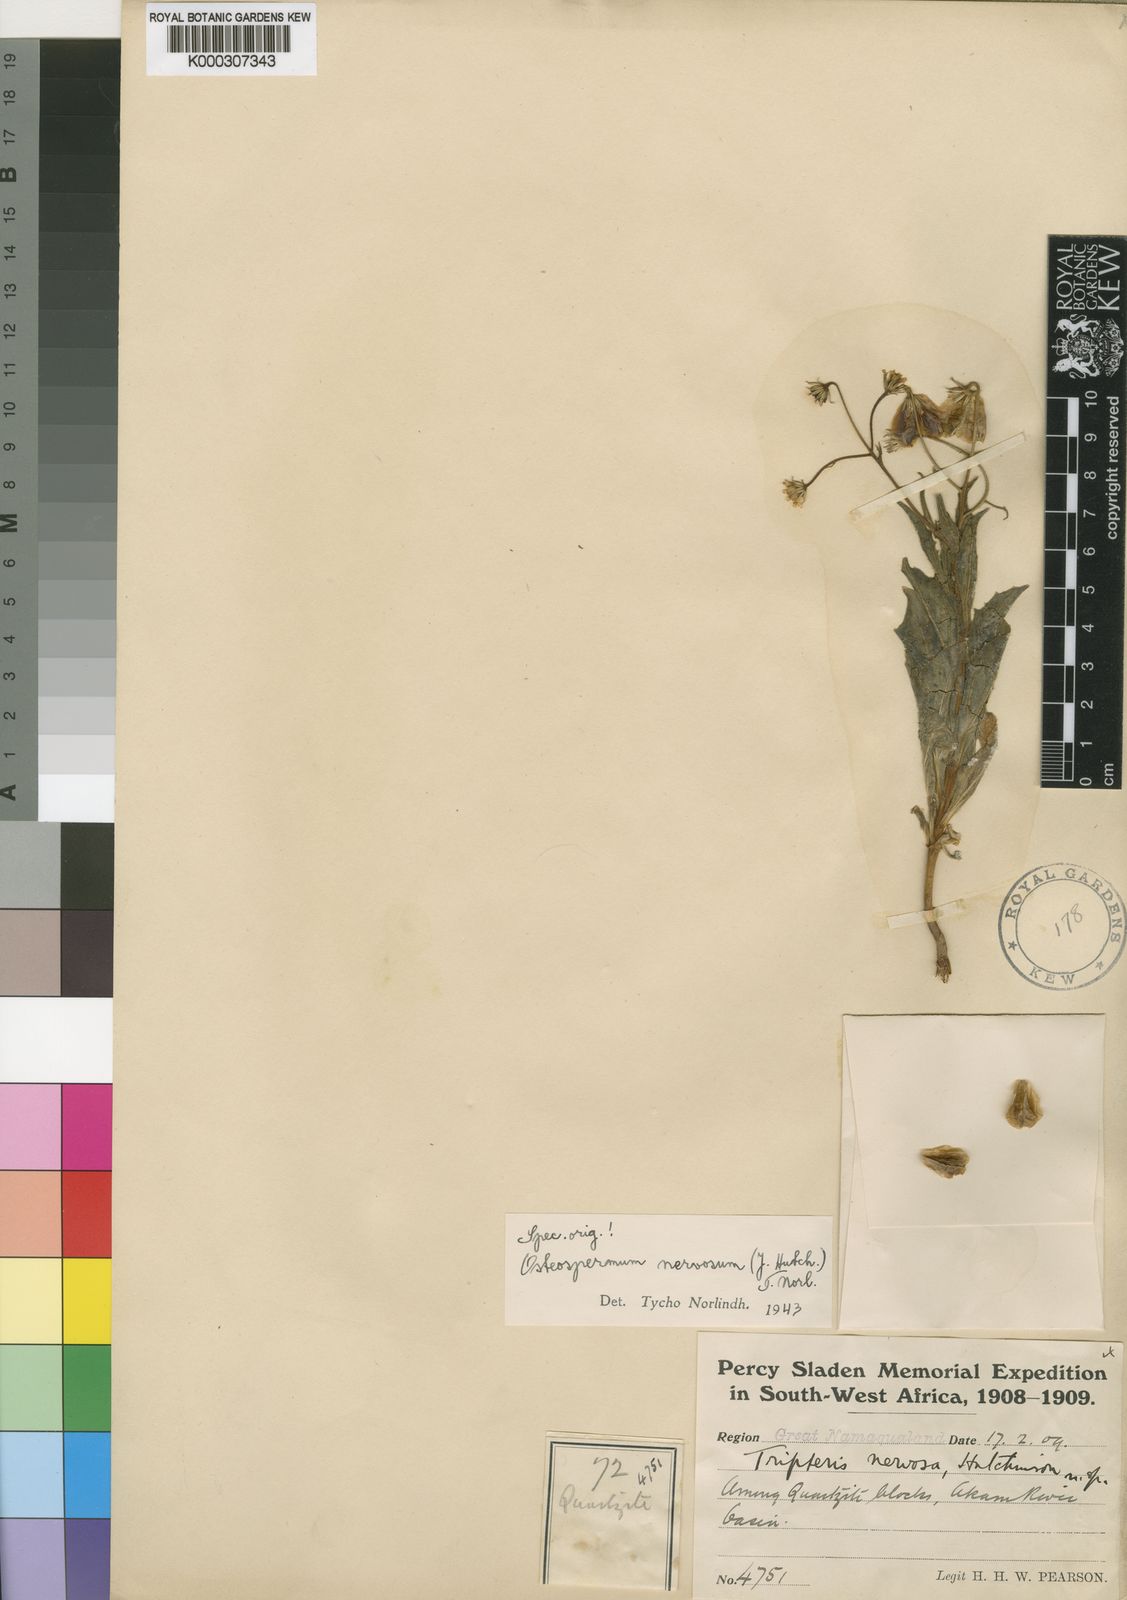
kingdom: Plantae
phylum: Tracheophyta
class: Magnoliopsida
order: Asterales
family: Asteraceae
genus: Osteospermum
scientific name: Osteospermum nervosum
